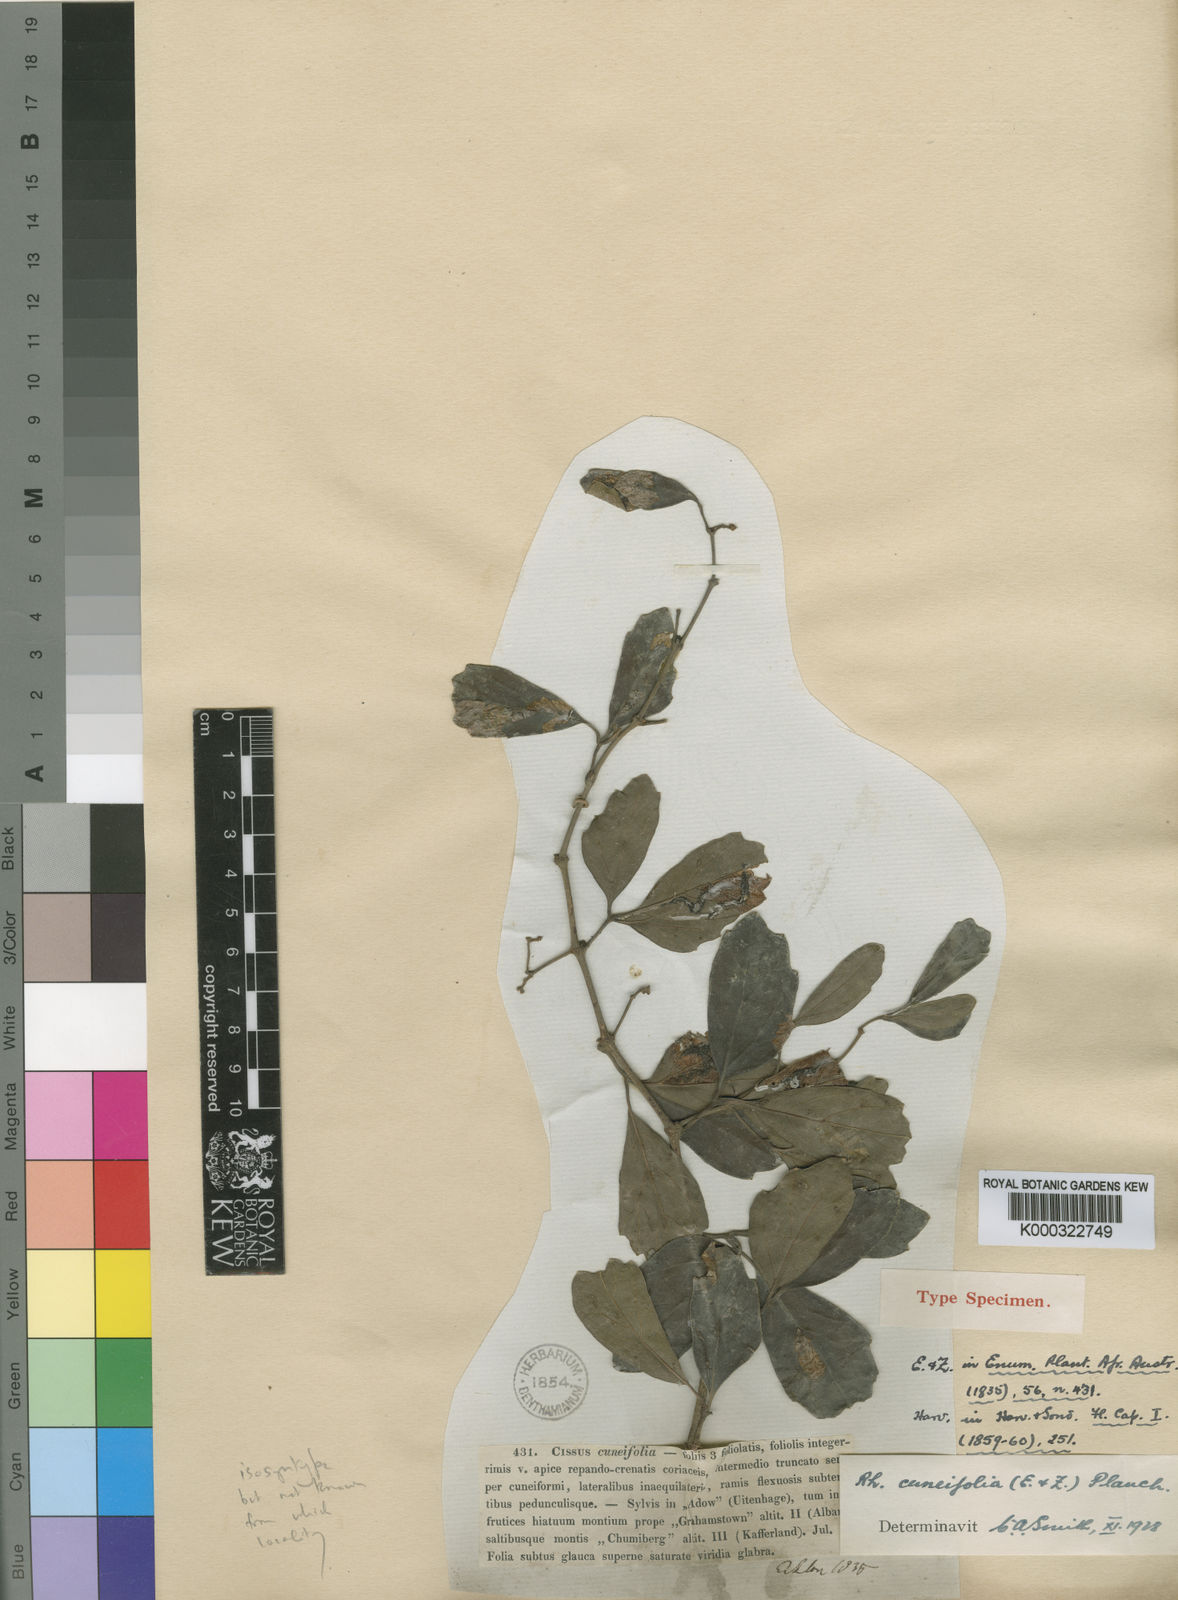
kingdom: Plantae
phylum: Tracheophyta
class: Magnoliopsida
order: Vitales
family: Vitaceae
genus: Rhoicissus
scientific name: Rhoicissus tridentata
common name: Common forest grape
